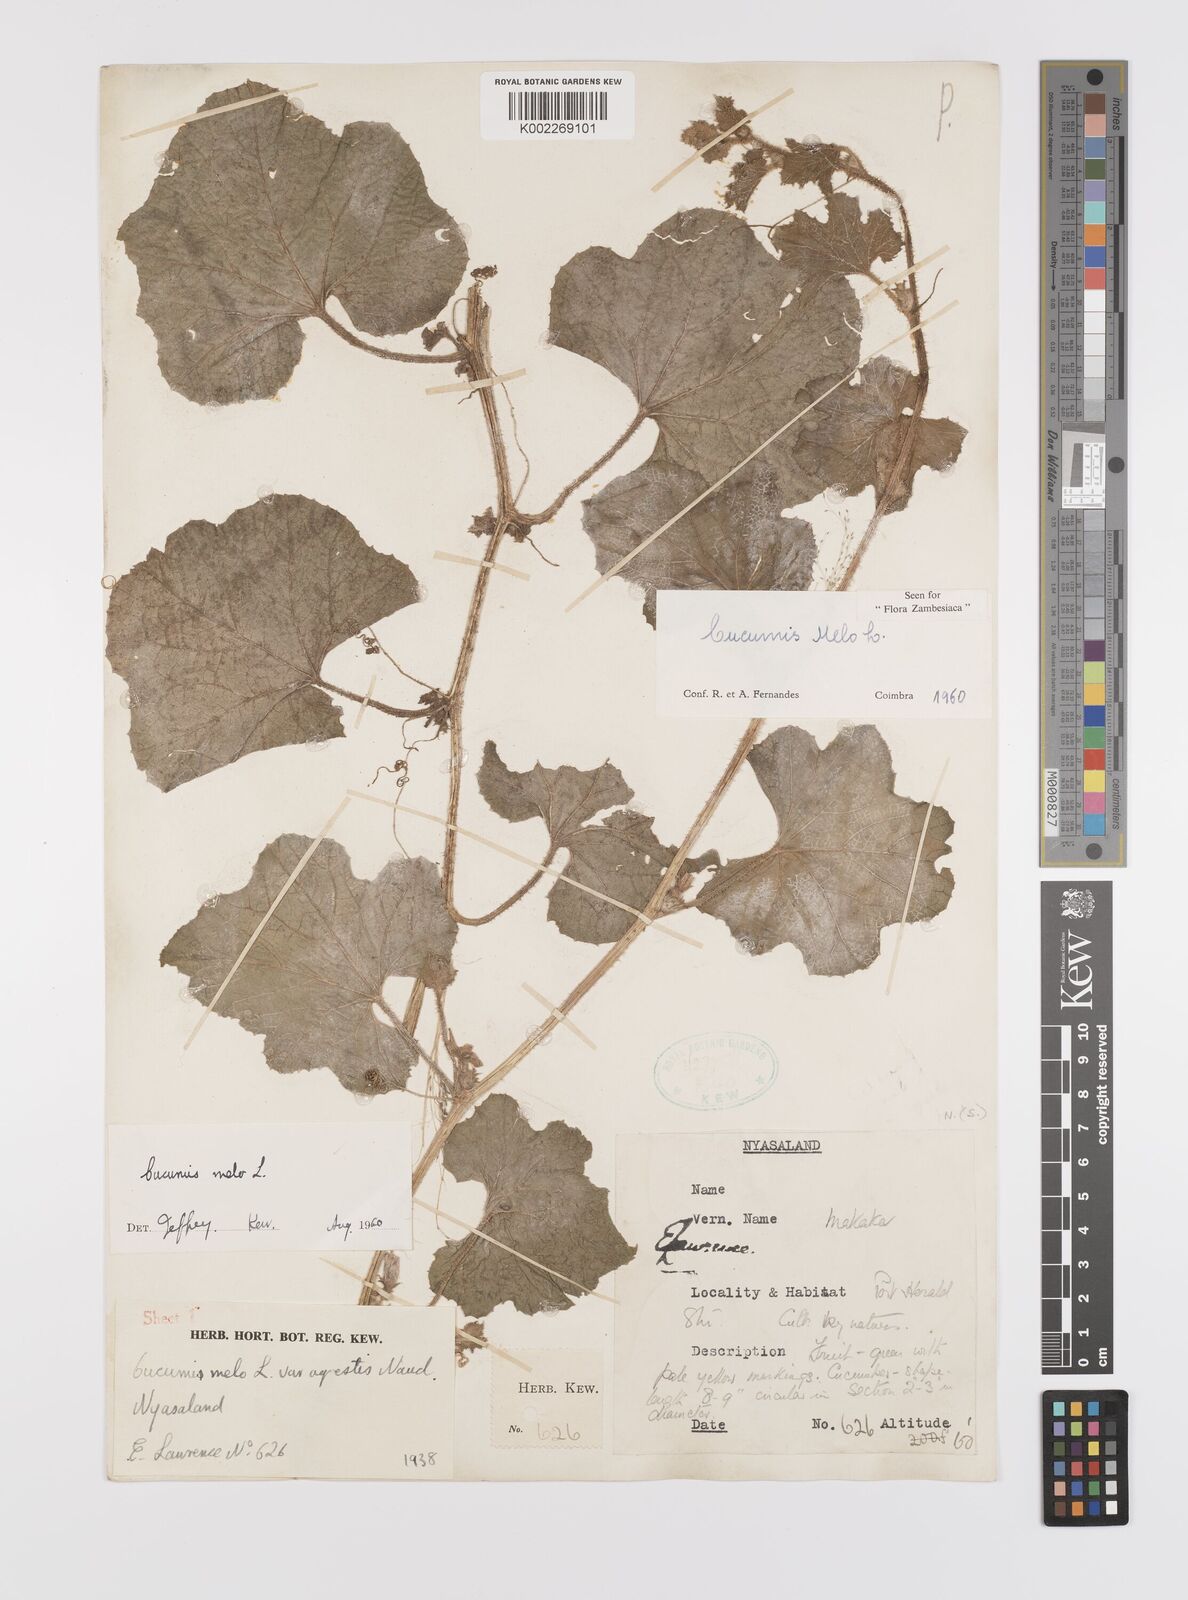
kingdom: Plantae
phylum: Tracheophyta
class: Magnoliopsida
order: Cucurbitales
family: Cucurbitaceae
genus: Cucumis
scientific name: Cucumis melo
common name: Melon
